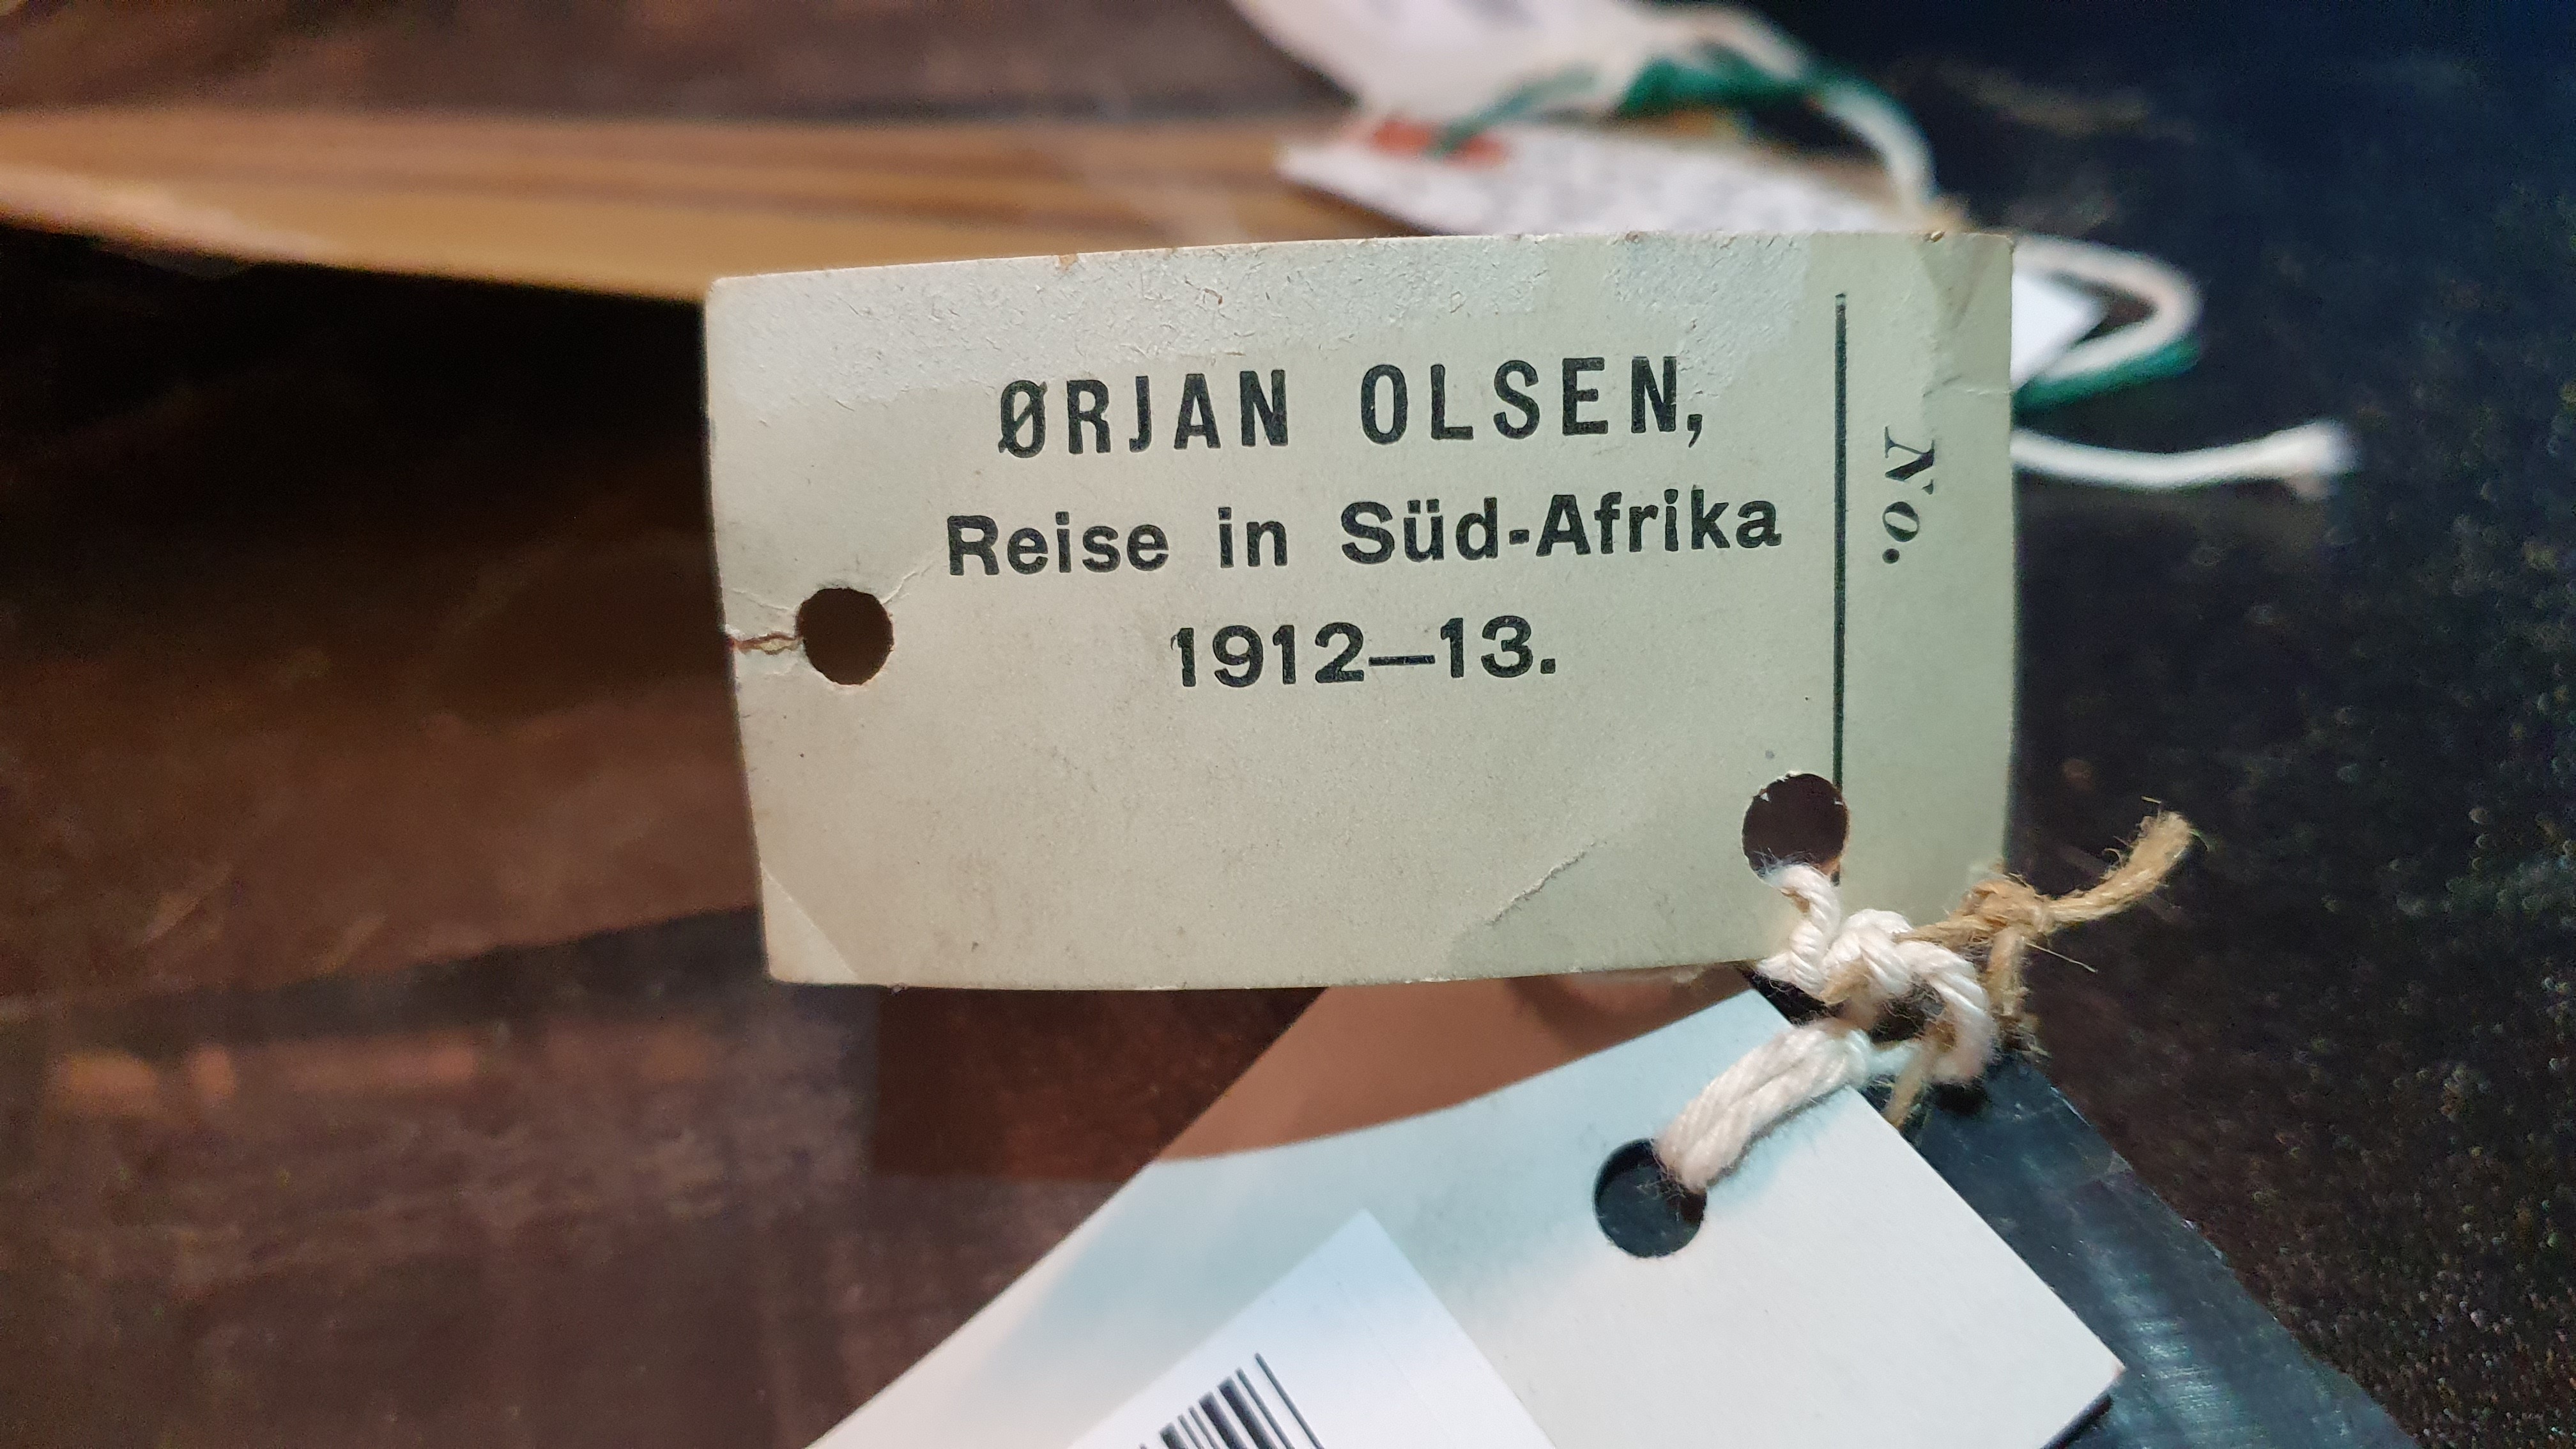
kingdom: Animalia
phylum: Chordata
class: Mammalia
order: Cetacea
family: Balaenopteridae
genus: Balaenoptera
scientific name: Balaenoptera borealis
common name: Sei whale
